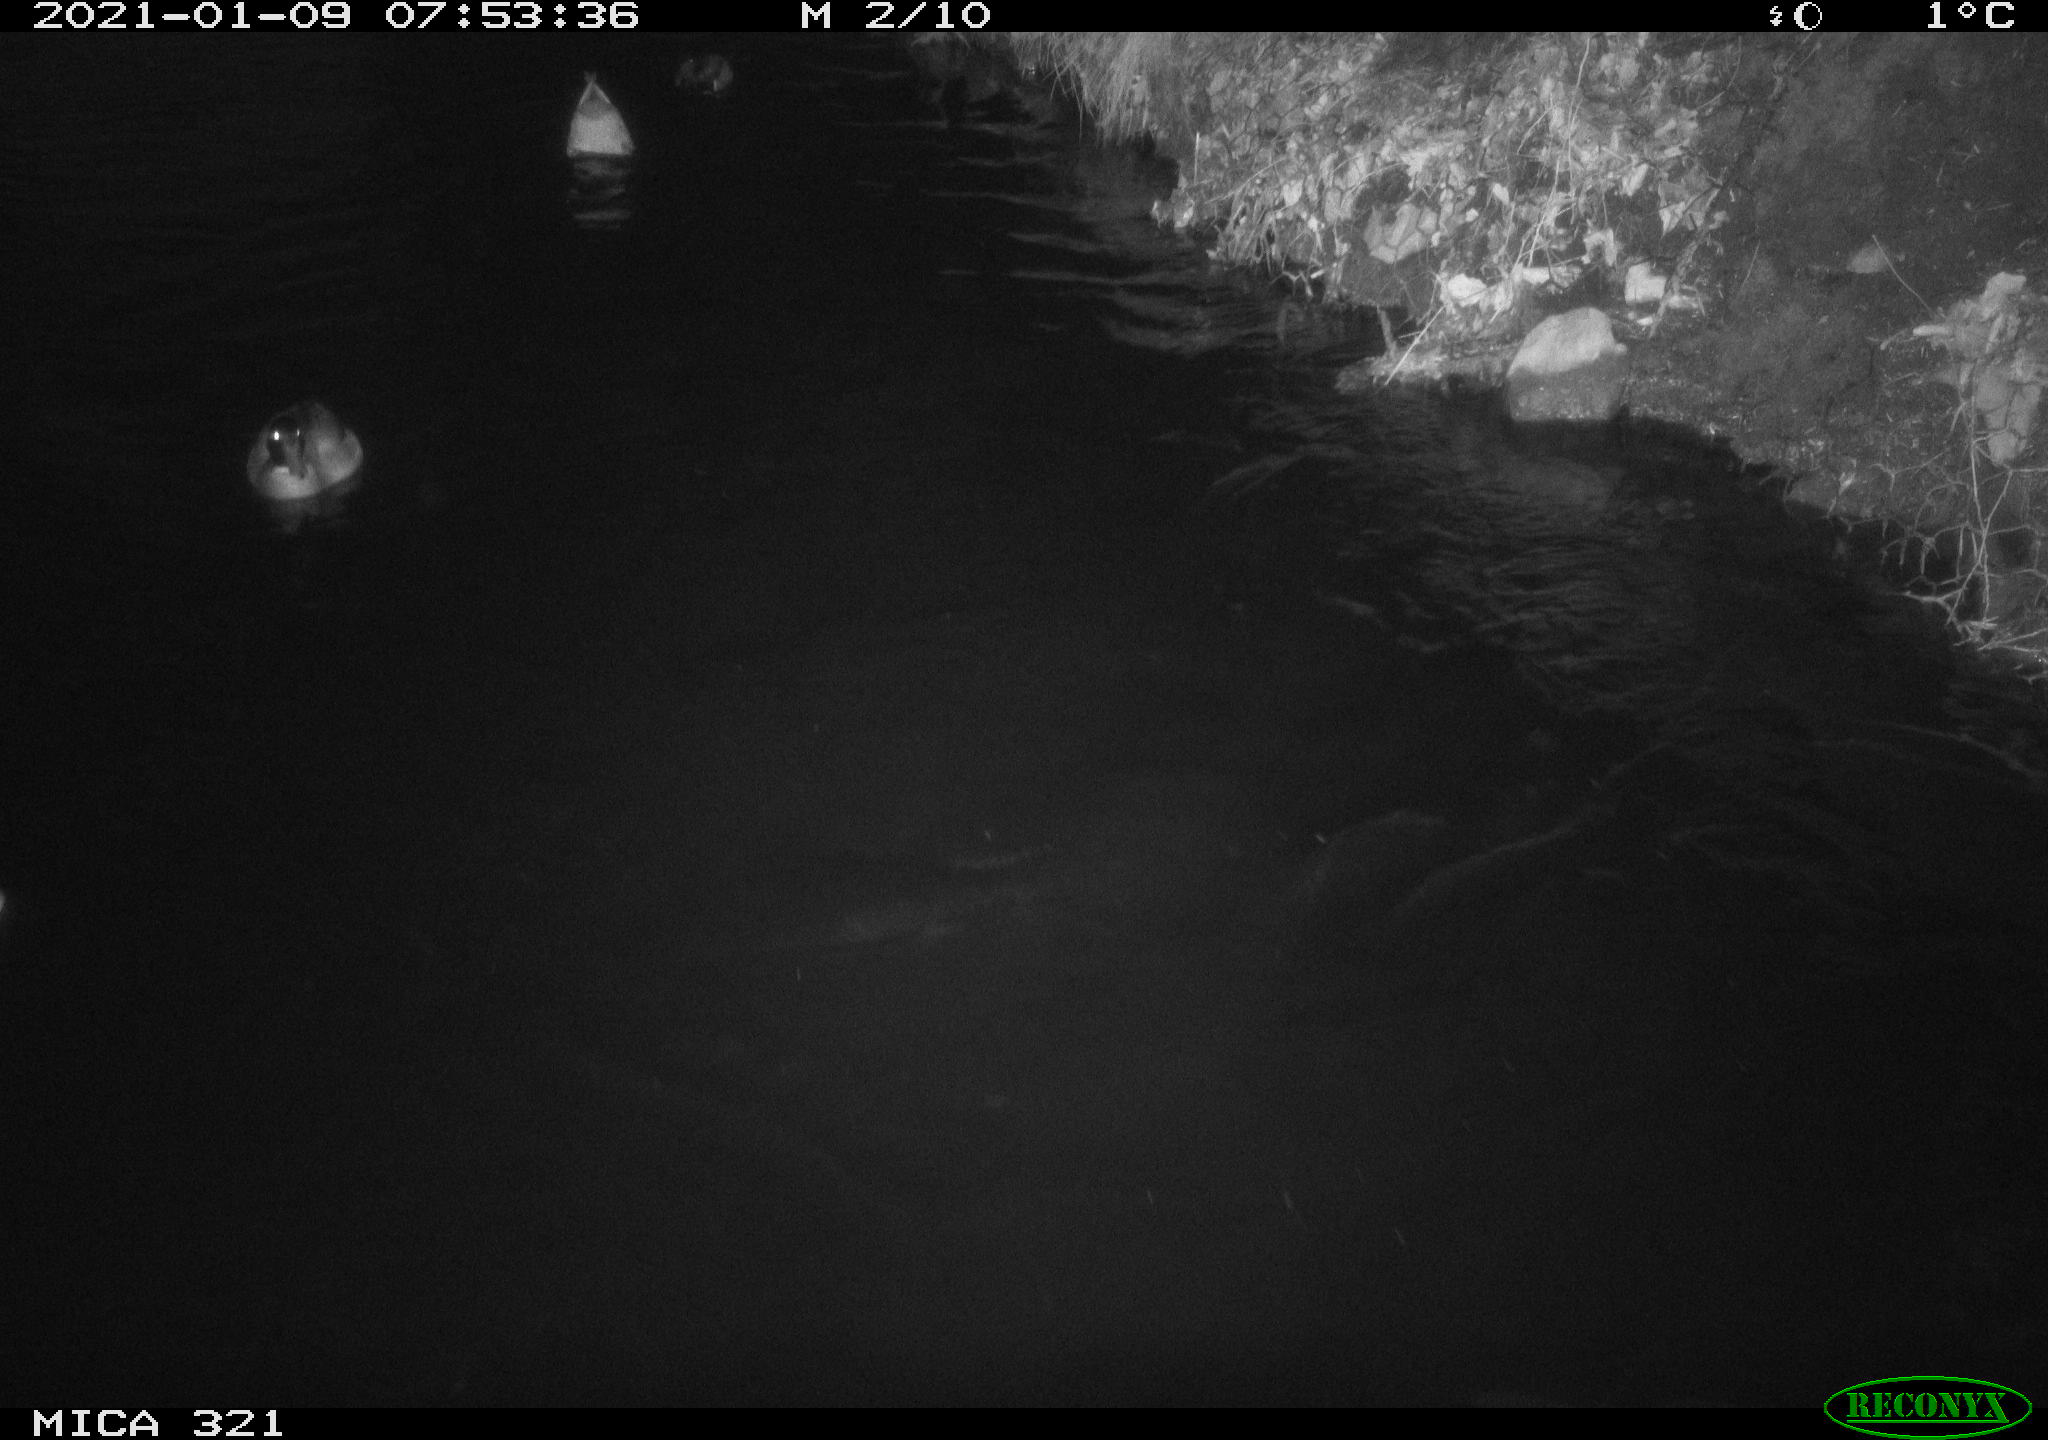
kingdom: Animalia
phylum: Chordata
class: Aves
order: Anseriformes
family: Anatidae
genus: Anas
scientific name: Anas platyrhynchos
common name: Mallard
